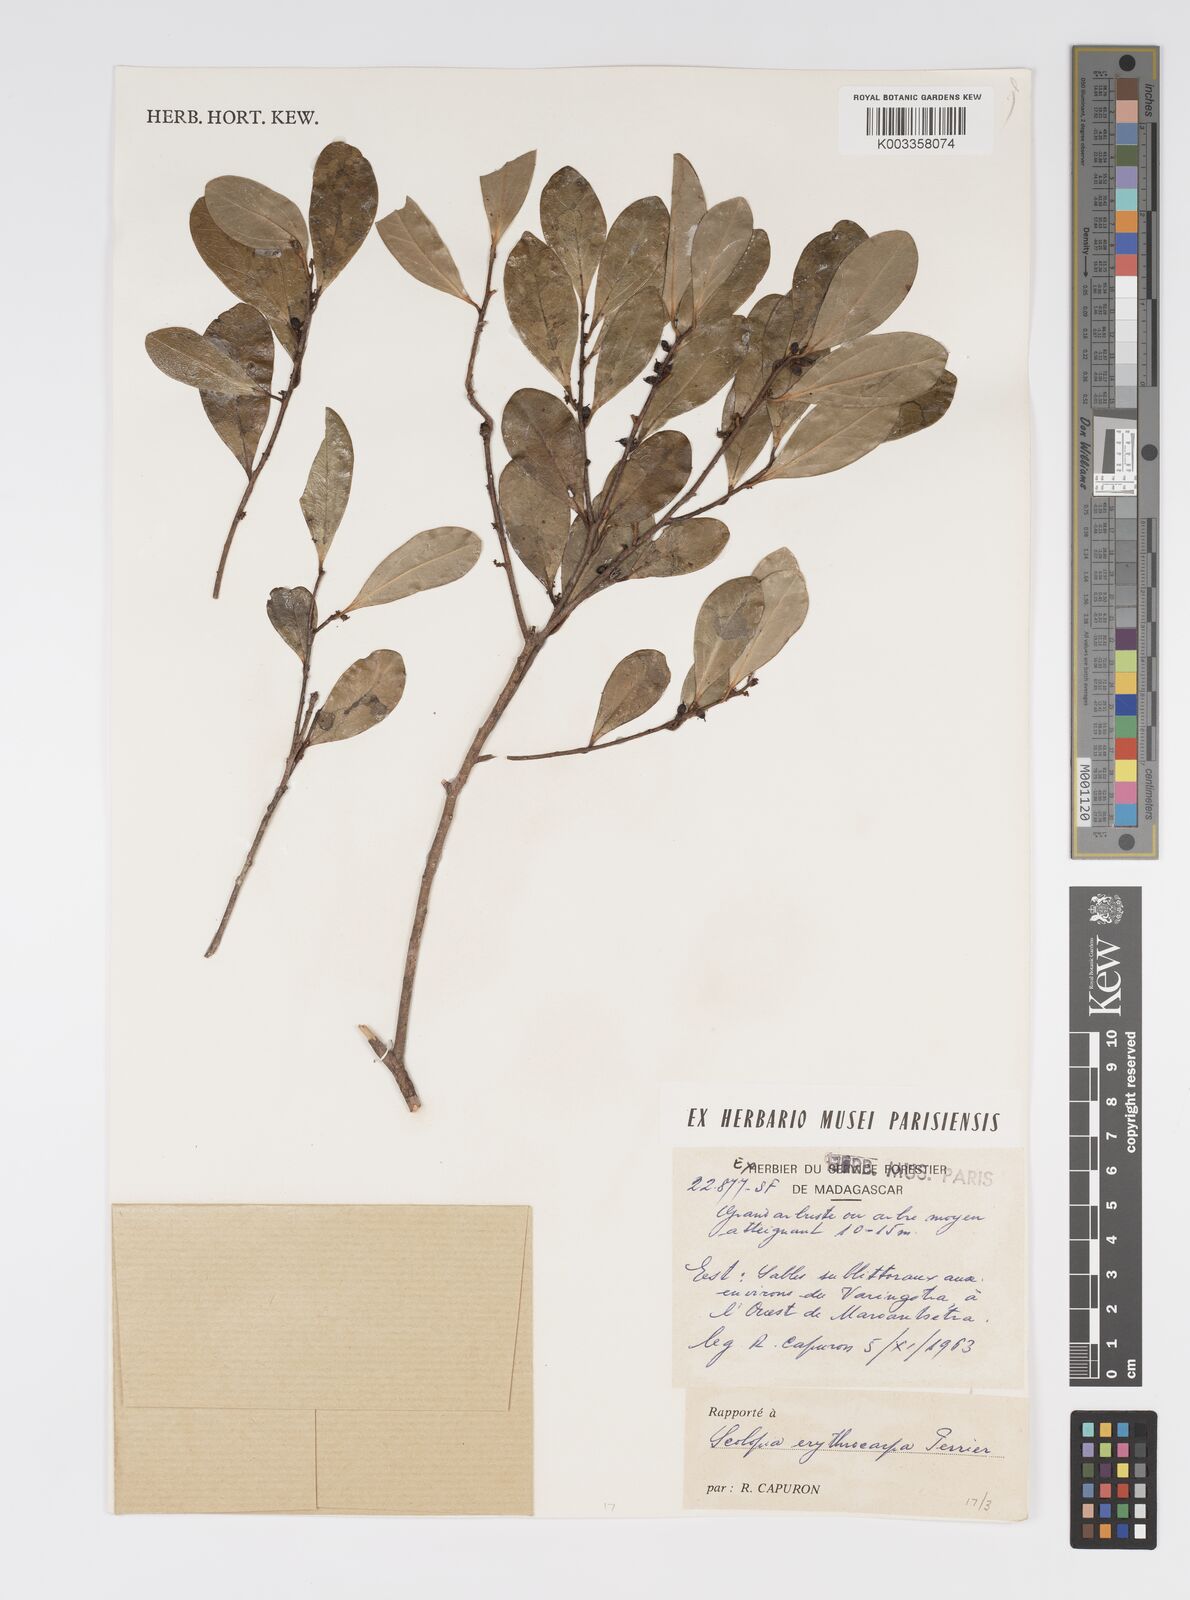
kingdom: Plantae
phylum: Tracheophyta
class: Magnoliopsida
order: Malpighiales
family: Salicaceae
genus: Scolopia
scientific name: Scolopia erythrocarpa
